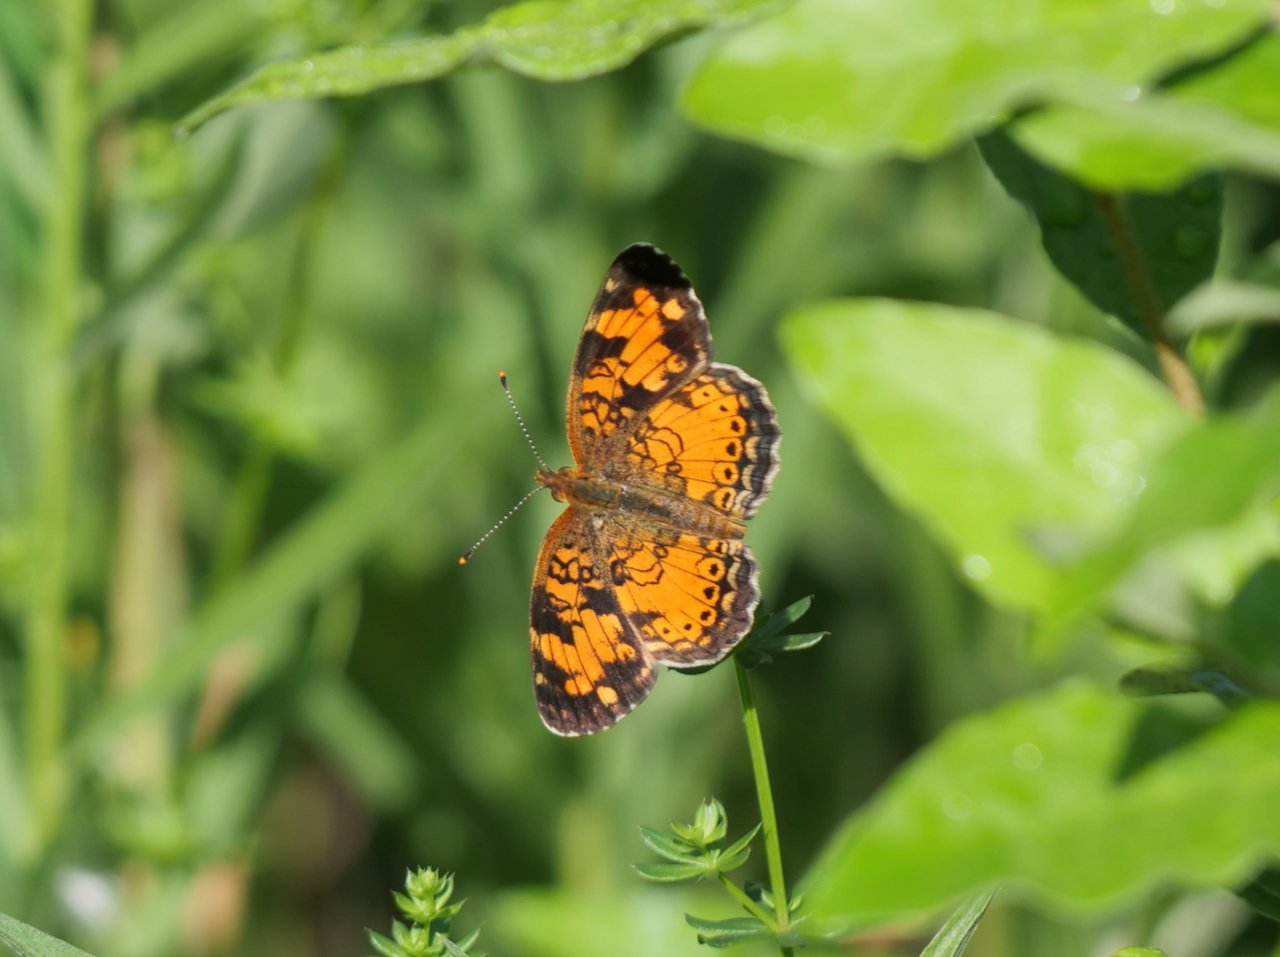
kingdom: Animalia
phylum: Arthropoda
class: Insecta
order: Lepidoptera
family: Nymphalidae
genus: Phyciodes
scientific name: Phyciodes tharos
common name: Northern Crescent
